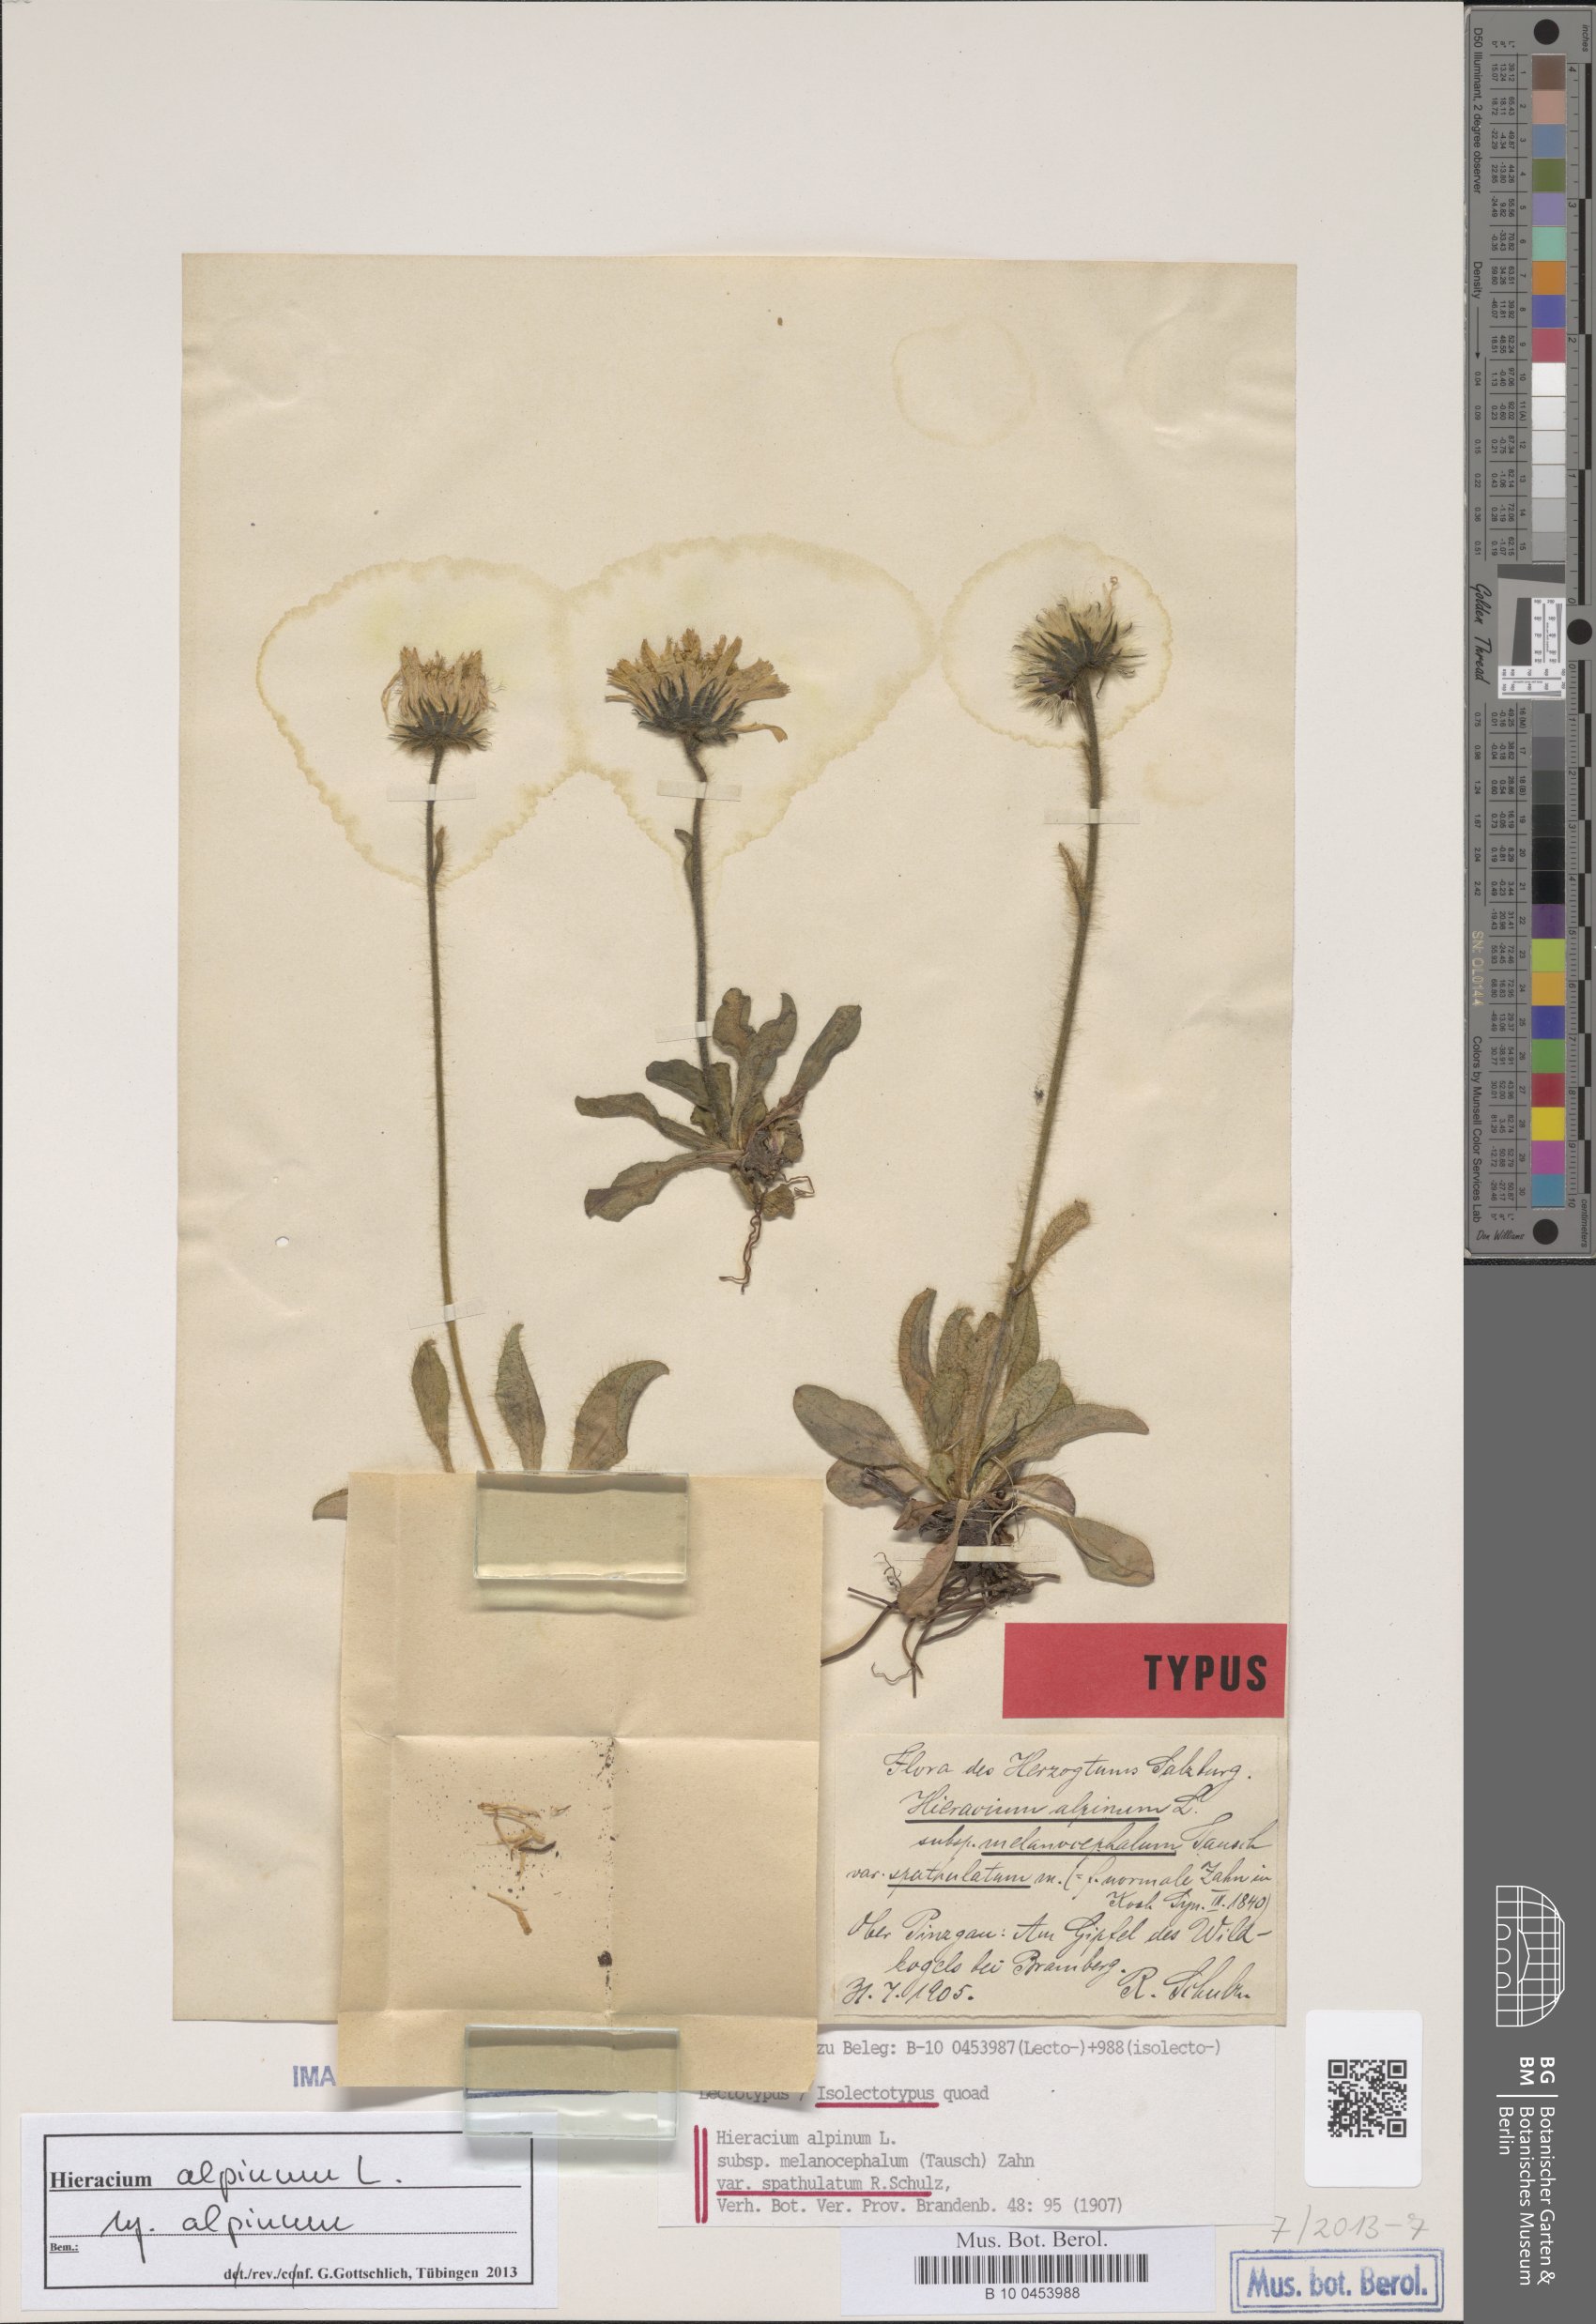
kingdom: Plantae
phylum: Tracheophyta
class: Magnoliopsida
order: Asterales
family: Asteraceae
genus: Hieracium
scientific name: Hieracium alpinum
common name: Alpine hawkweed
